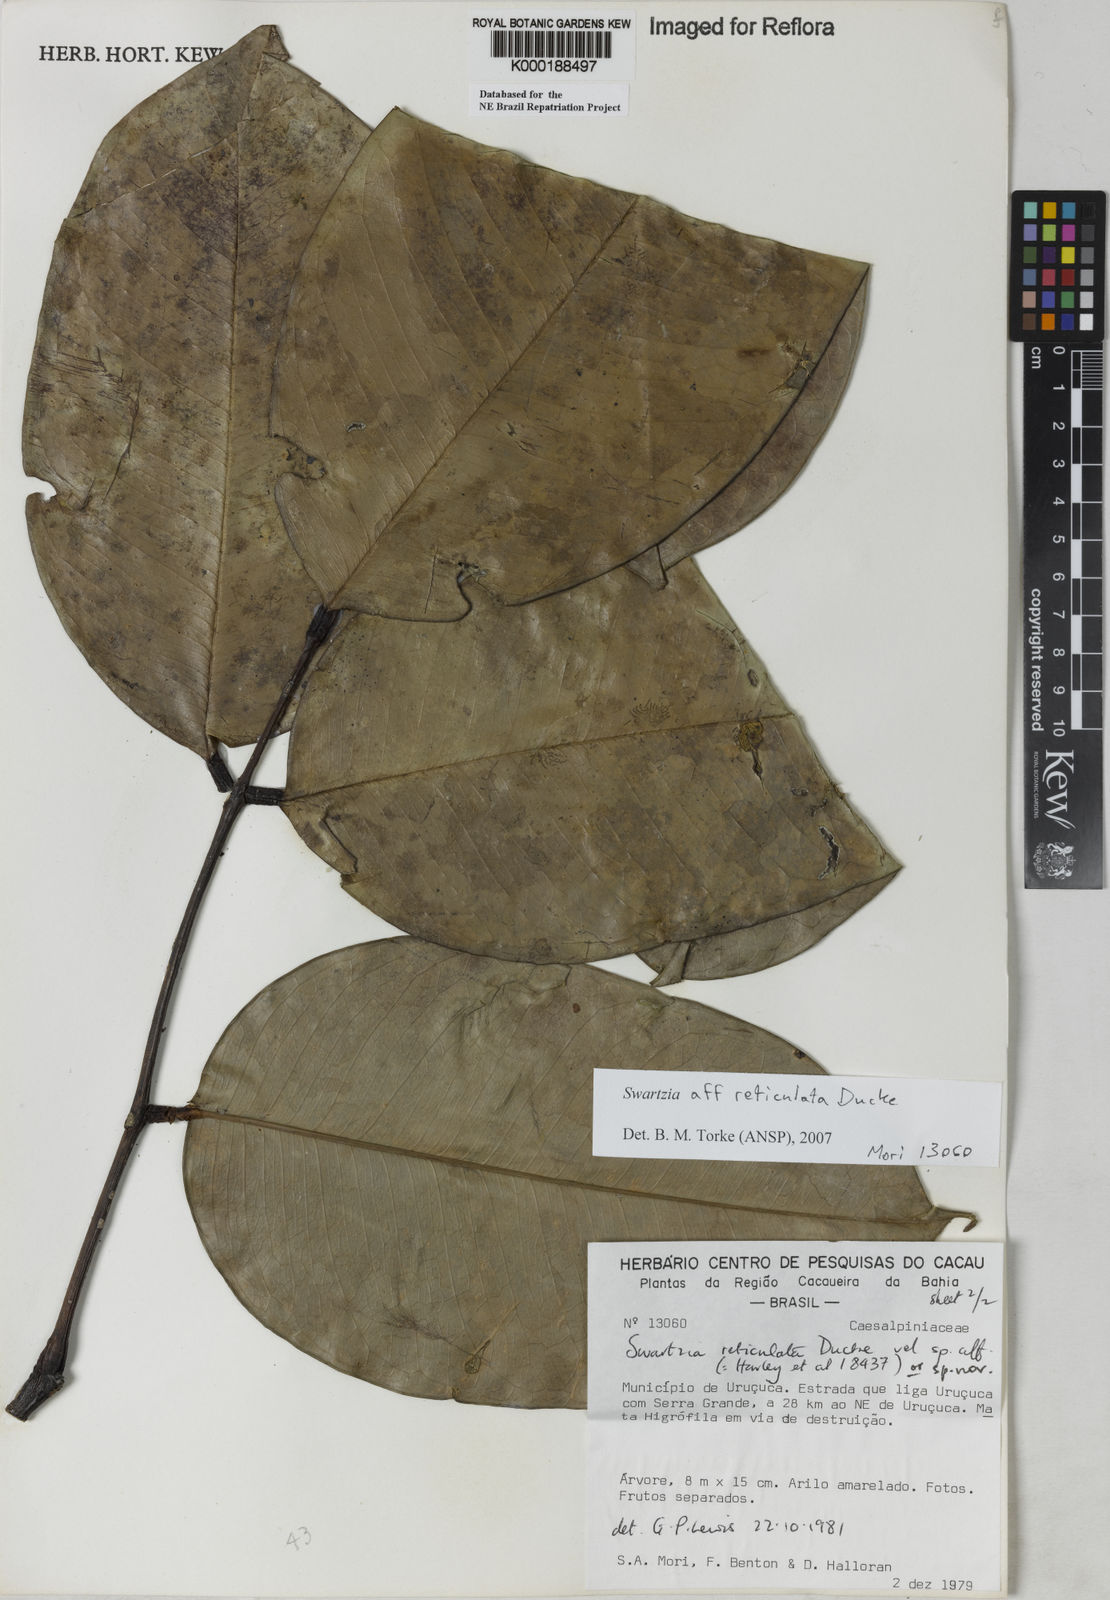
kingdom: Plantae
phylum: Tracheophyta
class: Magnoliopsida
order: Fabales
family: Fabaceae
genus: Swartzia
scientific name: Swartzia reticulata
